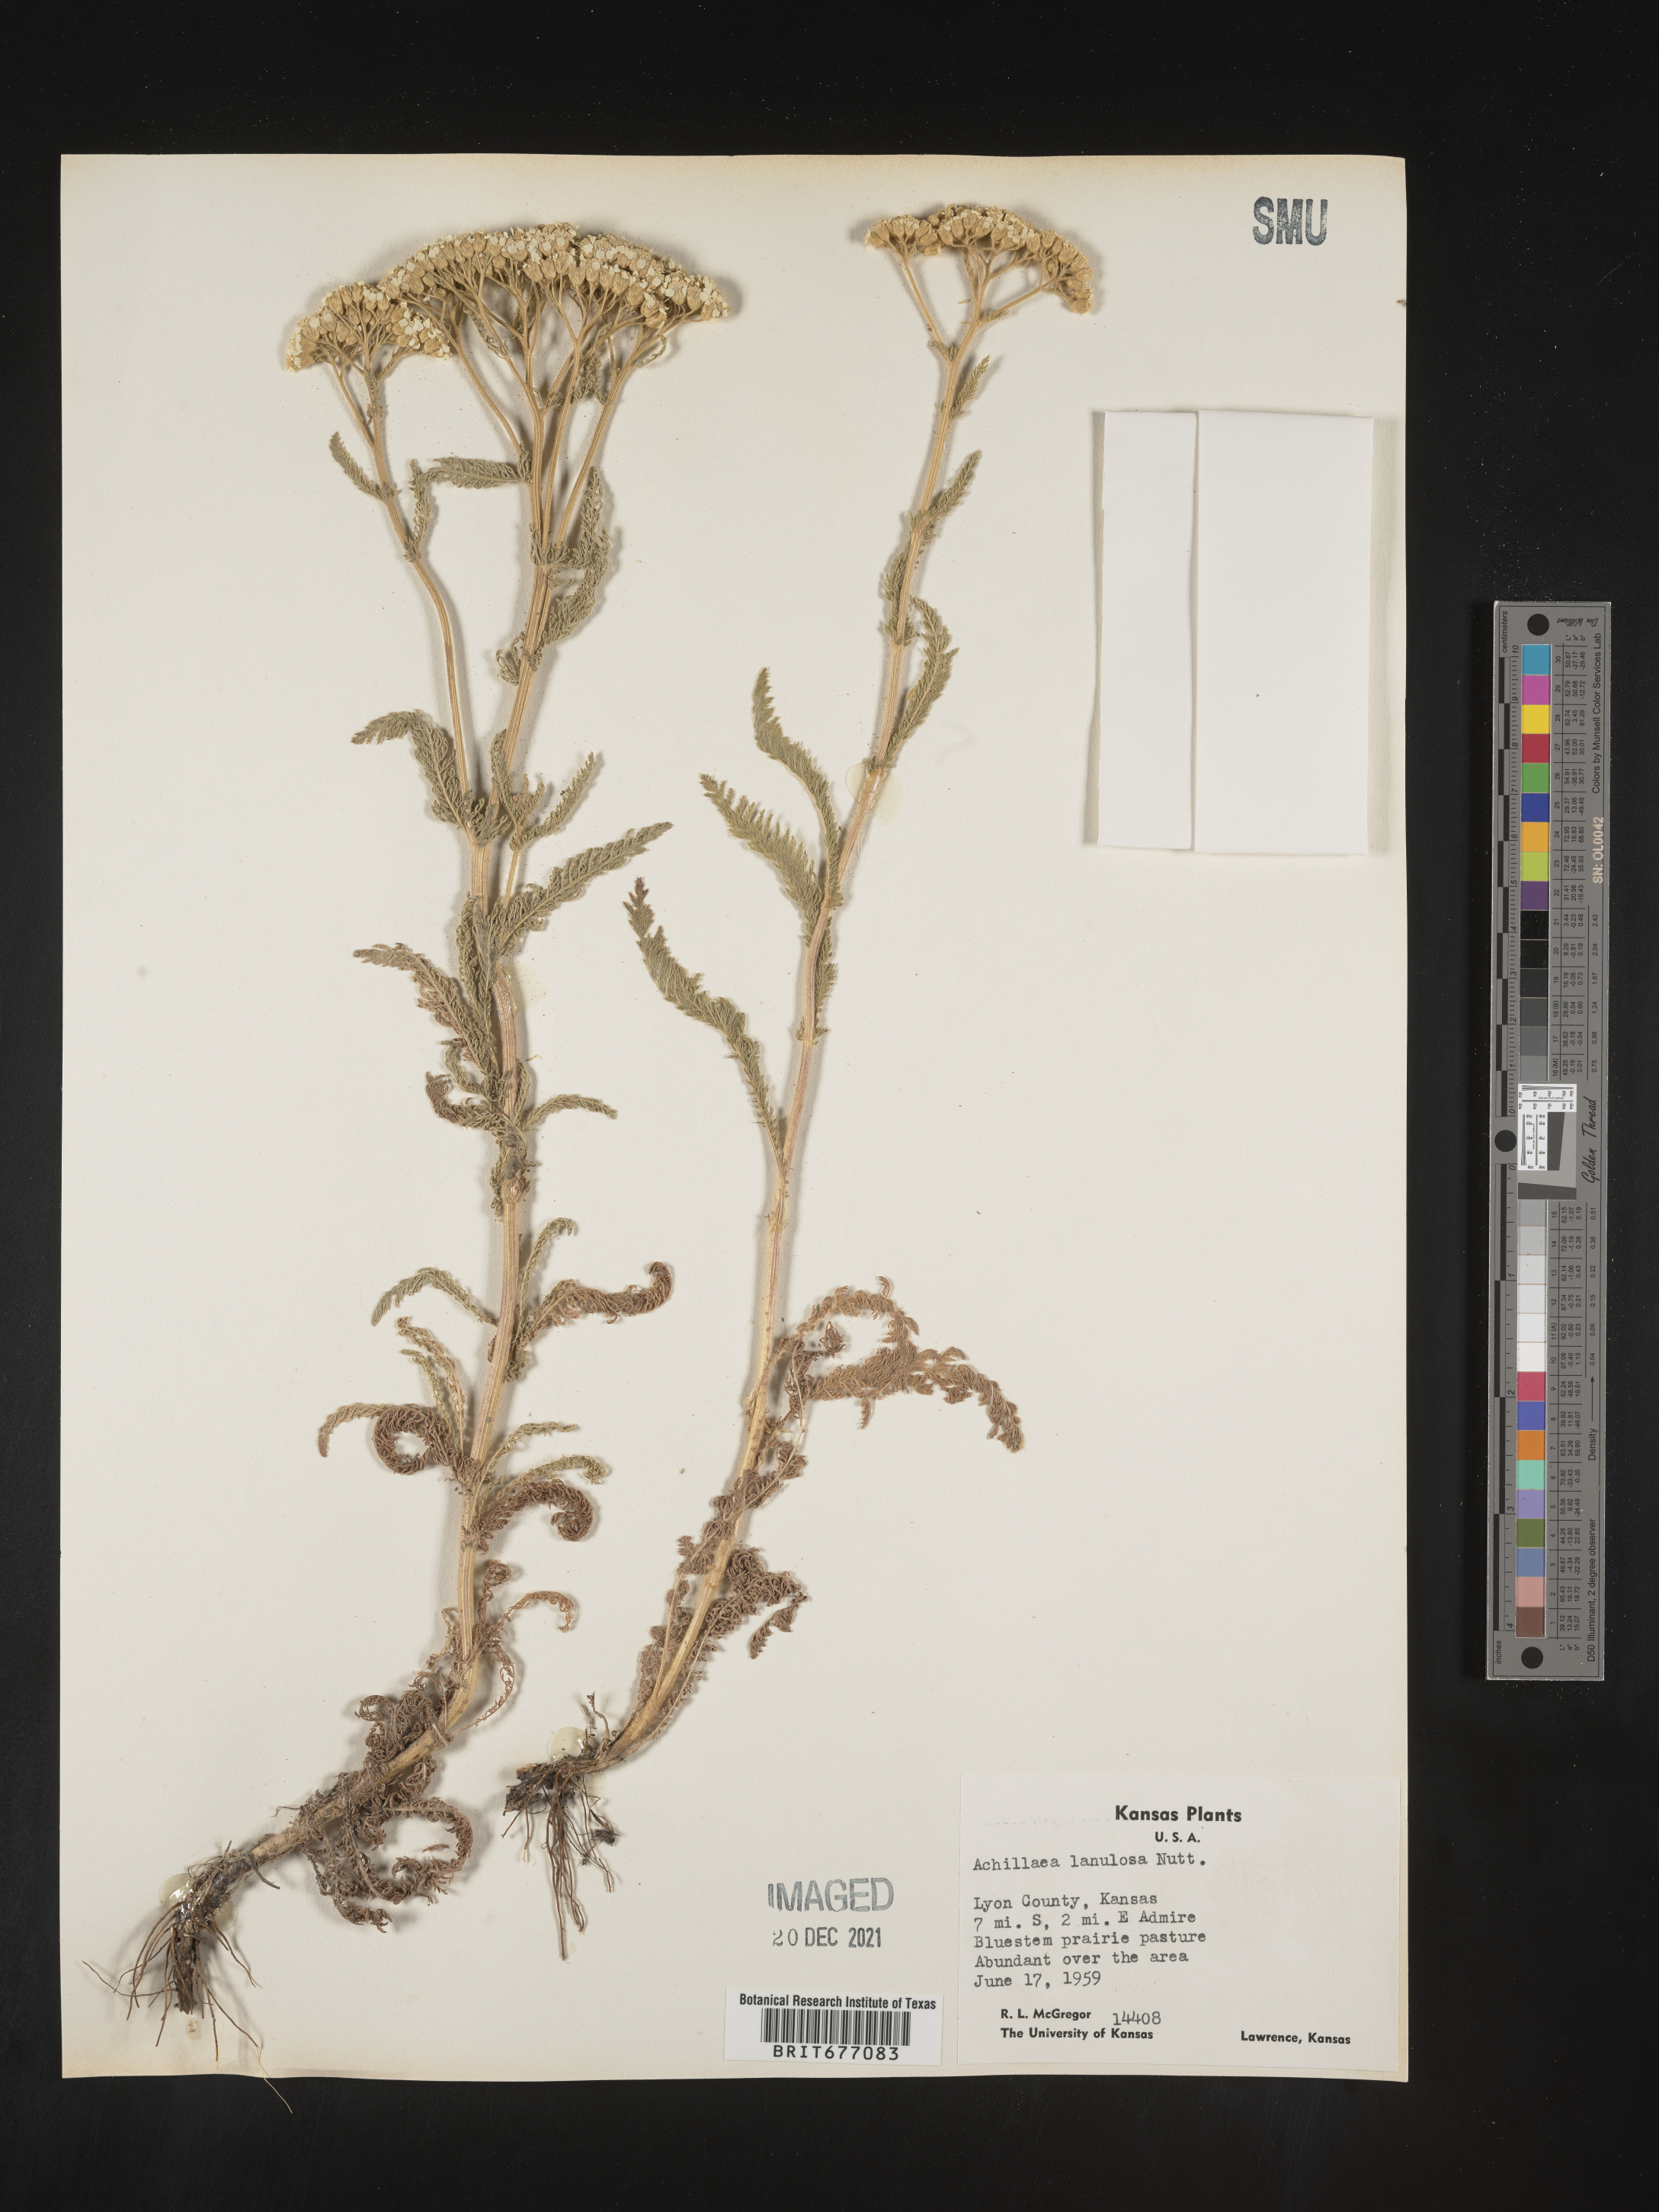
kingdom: Plantae
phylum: Tracheophyta
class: Magnoliopsida
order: Asterales
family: Asteraceae
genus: Achillea
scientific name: Achillea millefolium
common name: Yarrow
